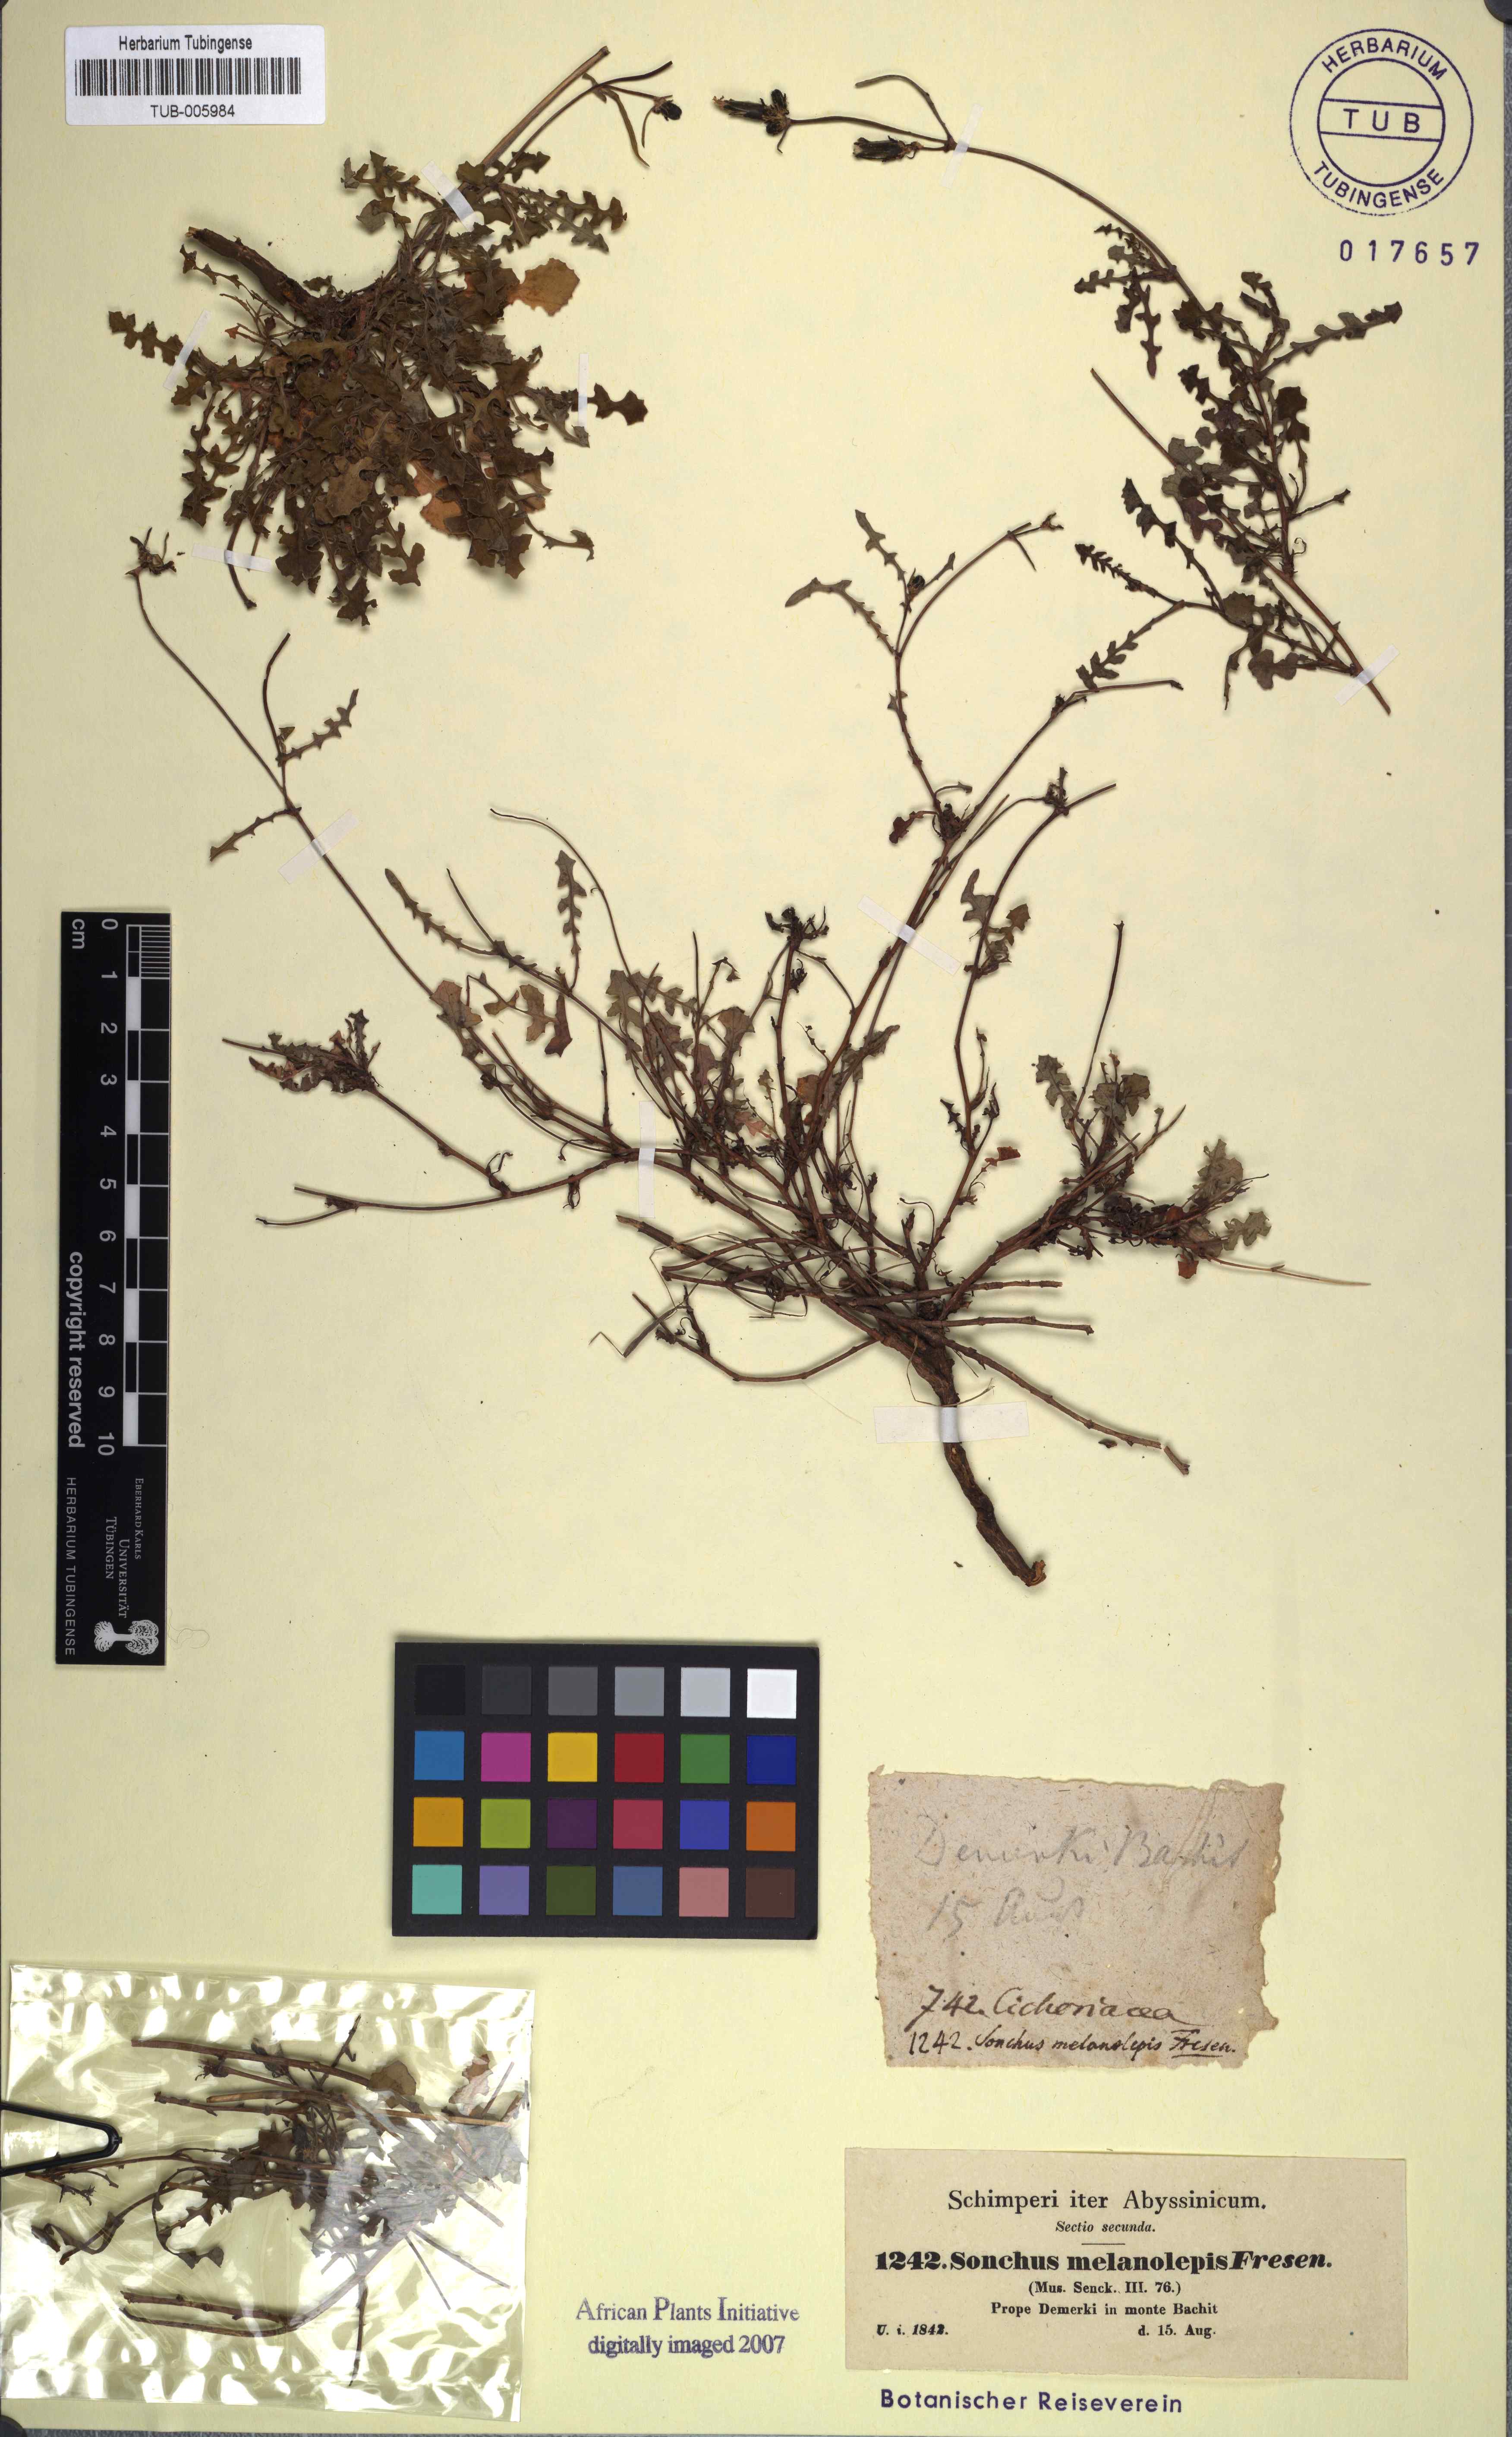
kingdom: Plantae
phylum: Tracheophyta
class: Magnoliopsida
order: Asterales
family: Asteraceae
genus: Sonchus
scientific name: Sonchus melanolepis
